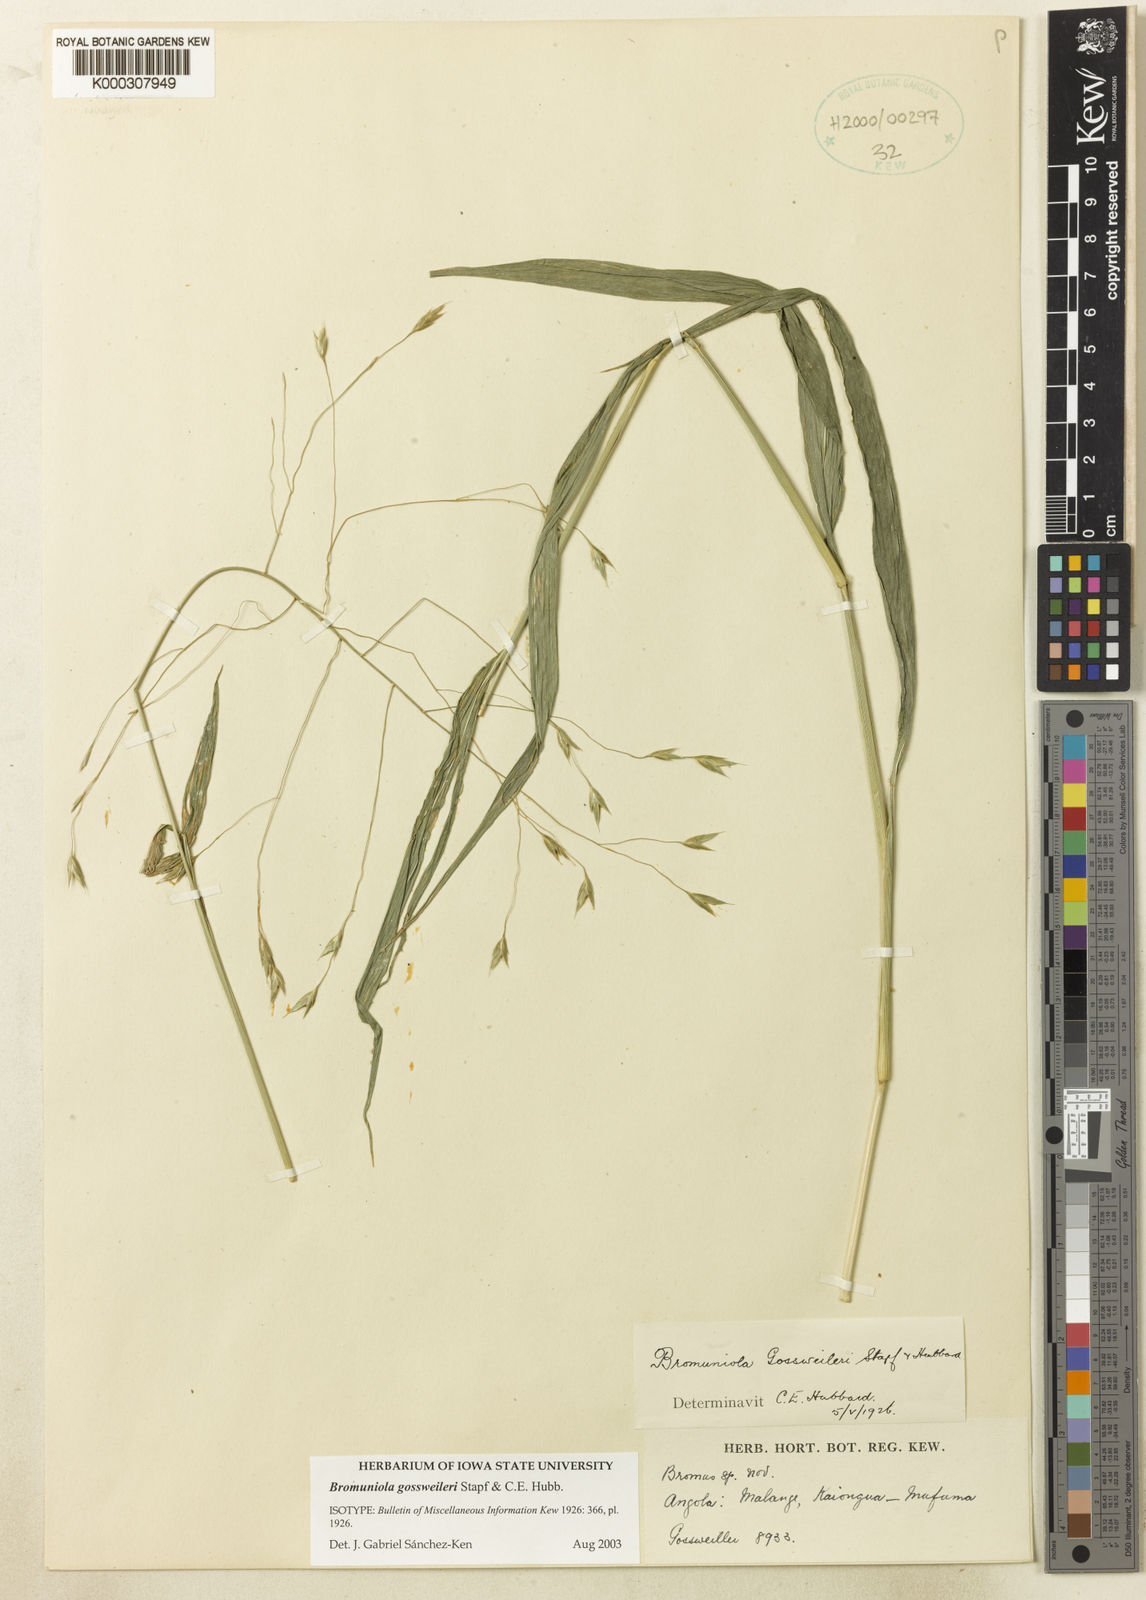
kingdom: Plantae
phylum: Tracheophyta
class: Liliopsida
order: Poales
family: Poaceae
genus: Bromuniola
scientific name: Bromuniola gossweileri
